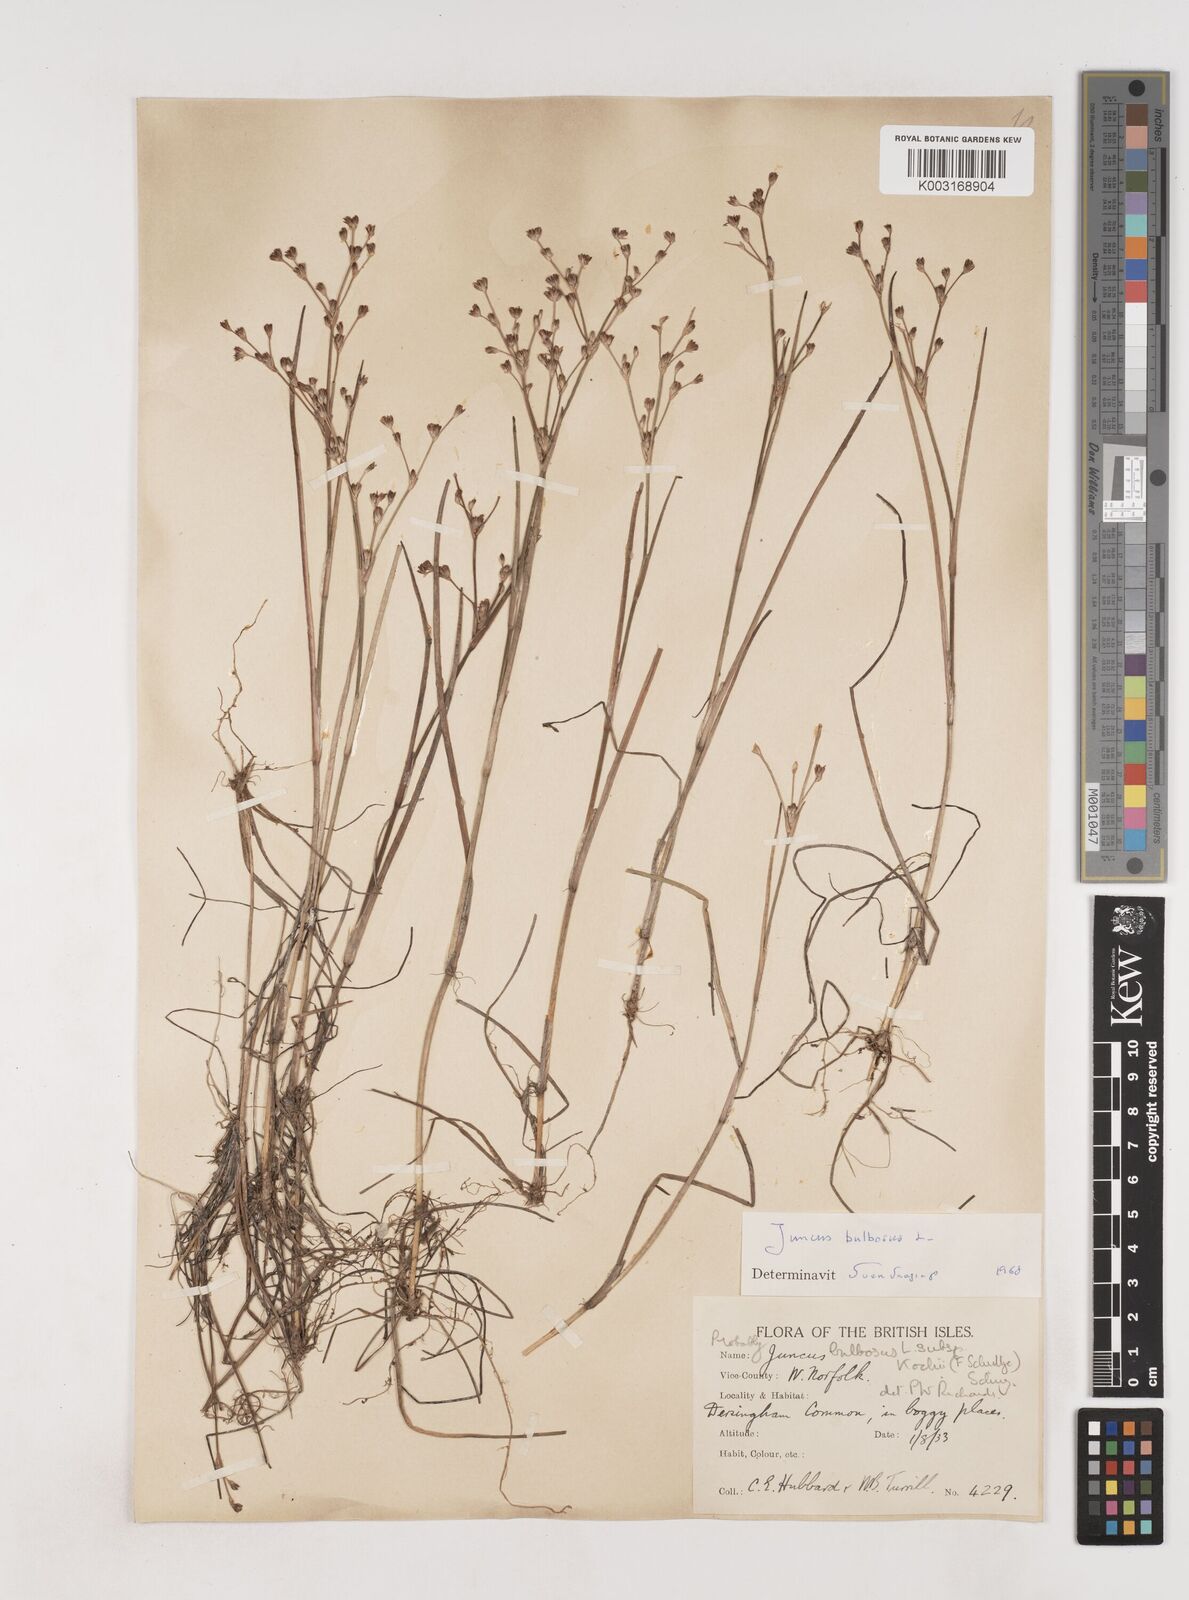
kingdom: Plantae
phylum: Tracheophyta
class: Liliopsida
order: Poales
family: Juncaceae
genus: Juncus
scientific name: Juncus bulbosus
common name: Bulbous rush
